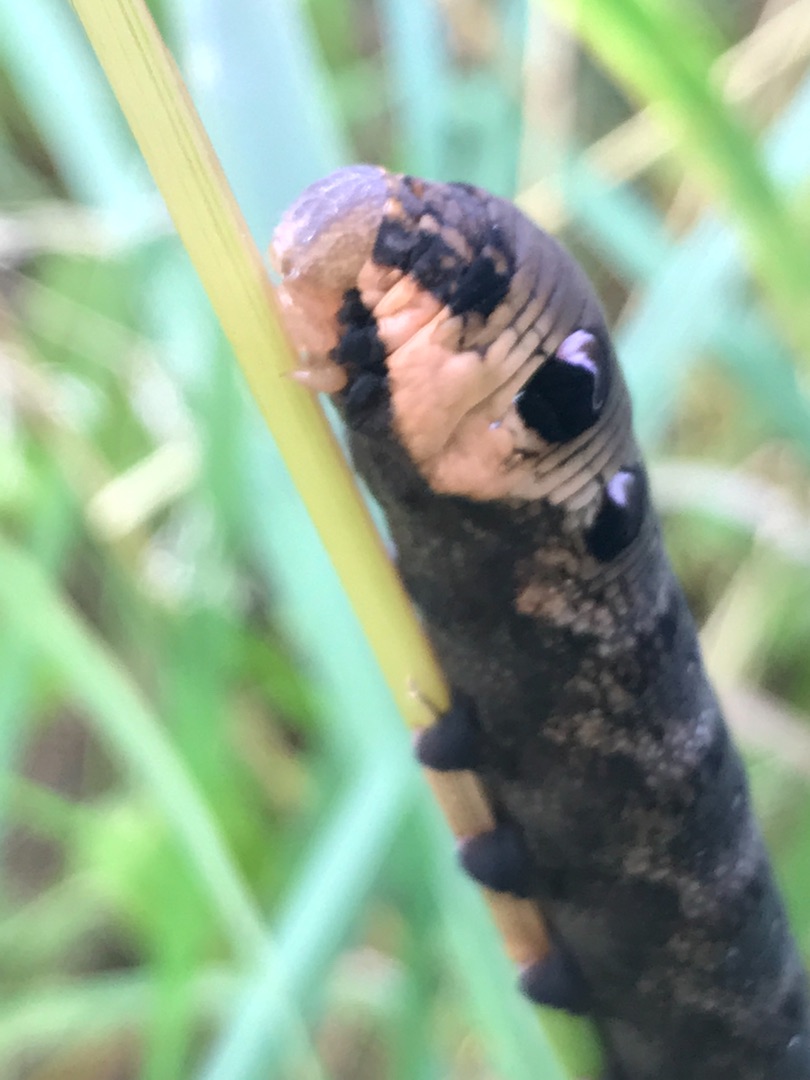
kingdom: Animalia
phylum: Arthropoda
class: Insecta
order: Lepidoptera
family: Sphingidae
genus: Deilephila
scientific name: Deilephila elpenor
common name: Dueurtsværmer
